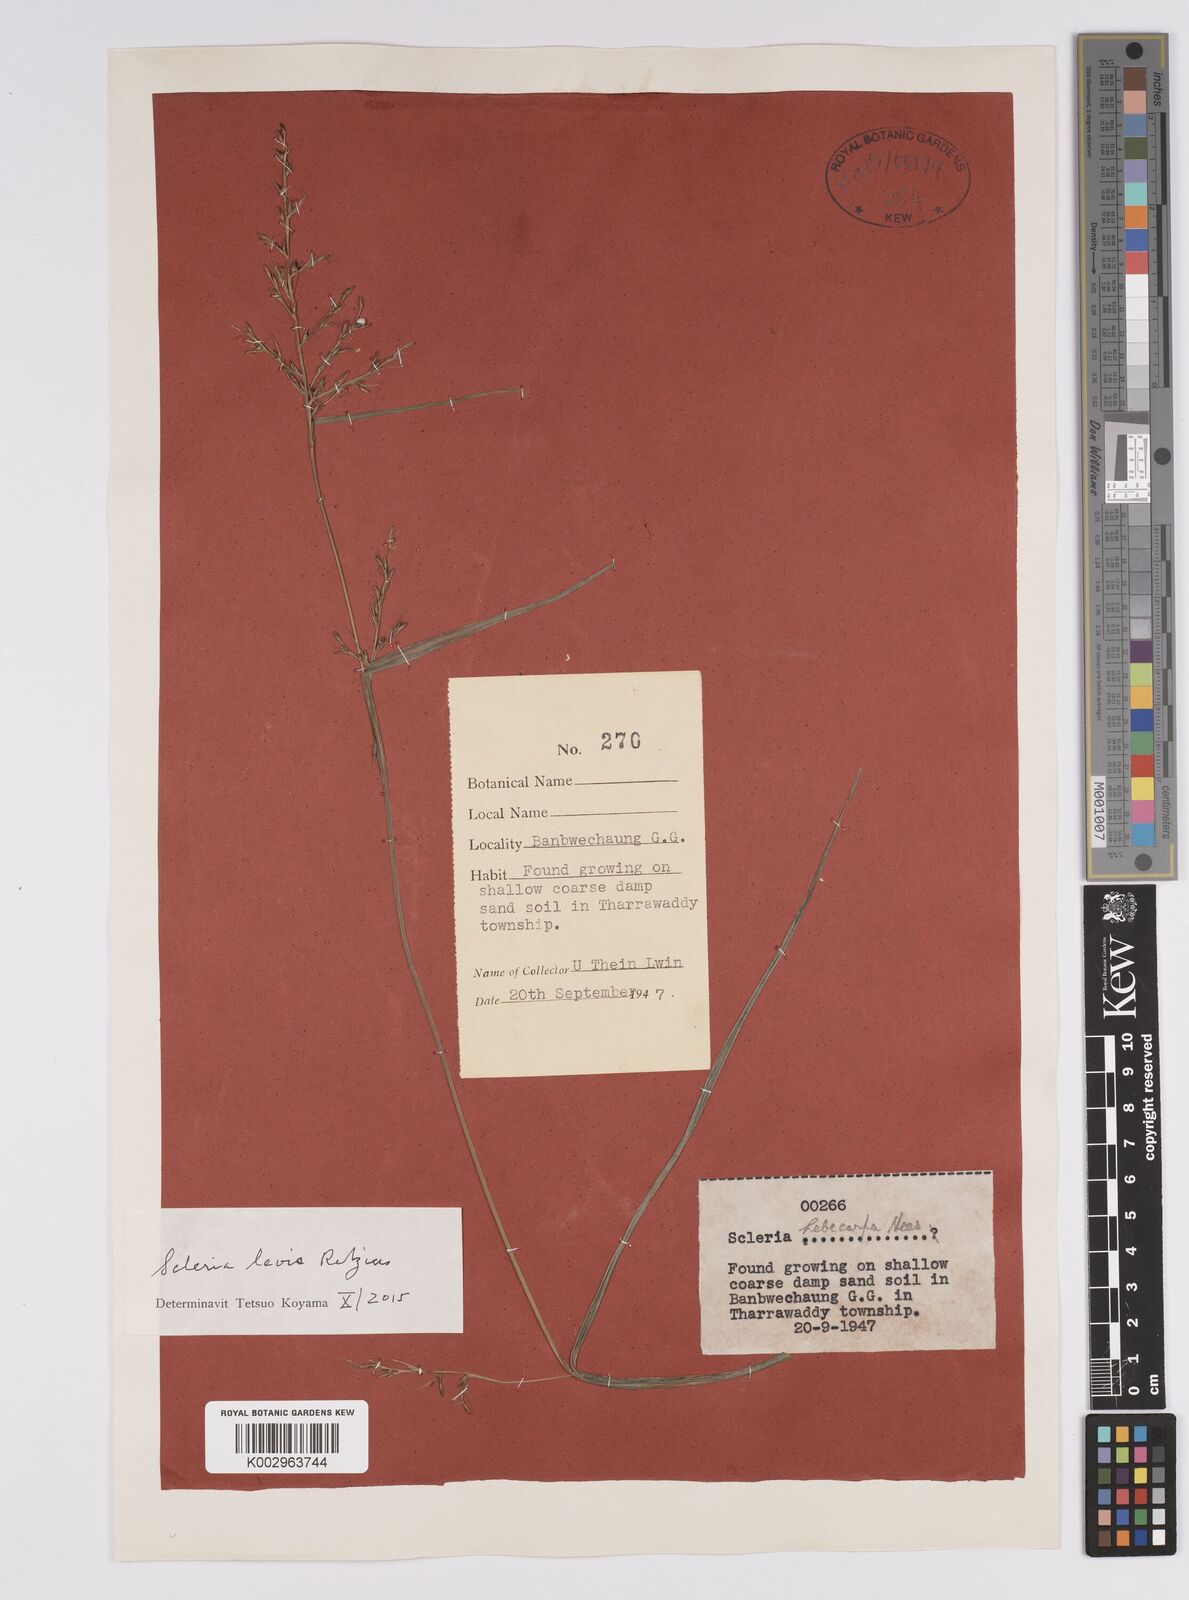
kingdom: Plantae
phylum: Tracheophyta
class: Liliopsida
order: Poales
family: Cyperaceae
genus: Scleria
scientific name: Scleria levis
